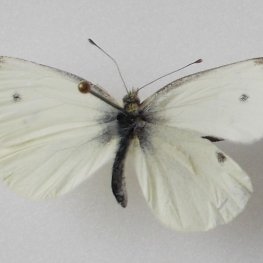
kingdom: Animalia
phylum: Arthropoda
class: Insecta
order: Lepidoptera
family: Pieridae
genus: Pieris
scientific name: Pieris rapae
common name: Cabbage White
